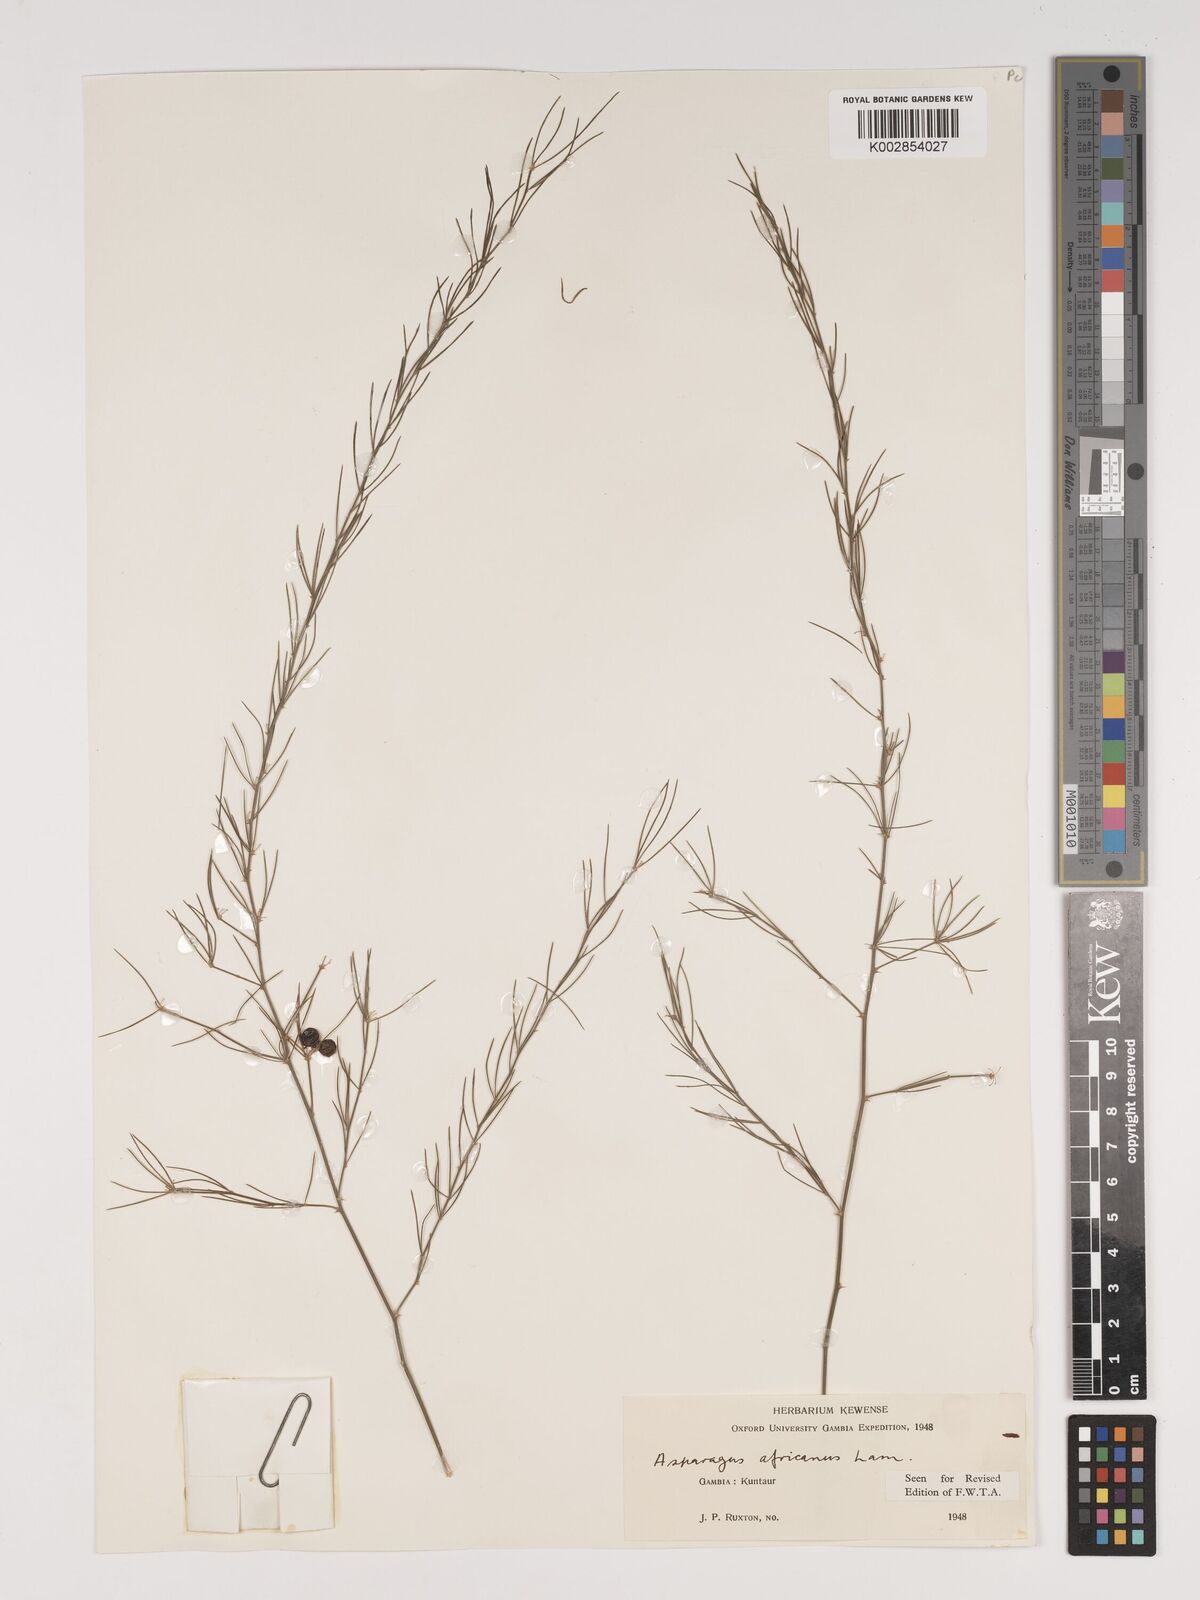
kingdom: Plantae
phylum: Tracheophyta
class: Liliopsida
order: Asparagales
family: Asparagaceae
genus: Asparagus
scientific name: Asparagus
